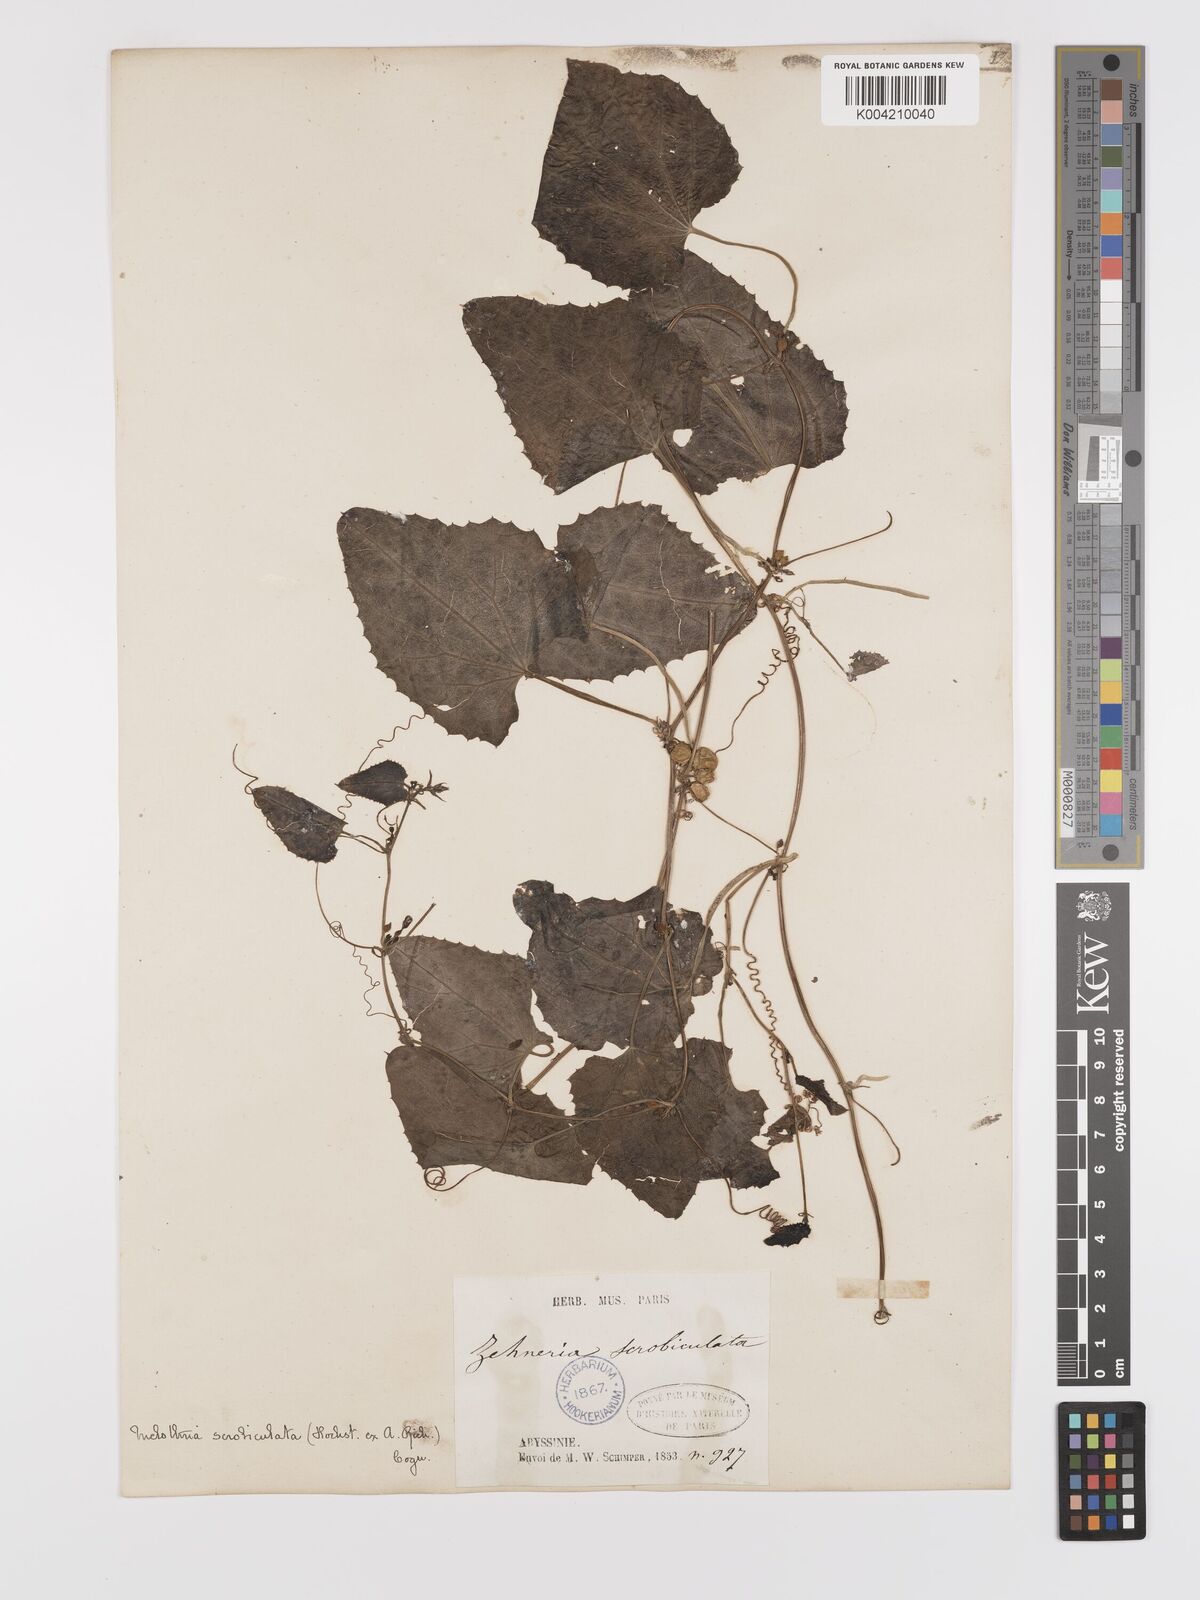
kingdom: Plantae
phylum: Tracheophyta
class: Magnoliopsida
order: Cucurbitales
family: Cucurbitaceae
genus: Zehneria
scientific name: Zehneria scabra
